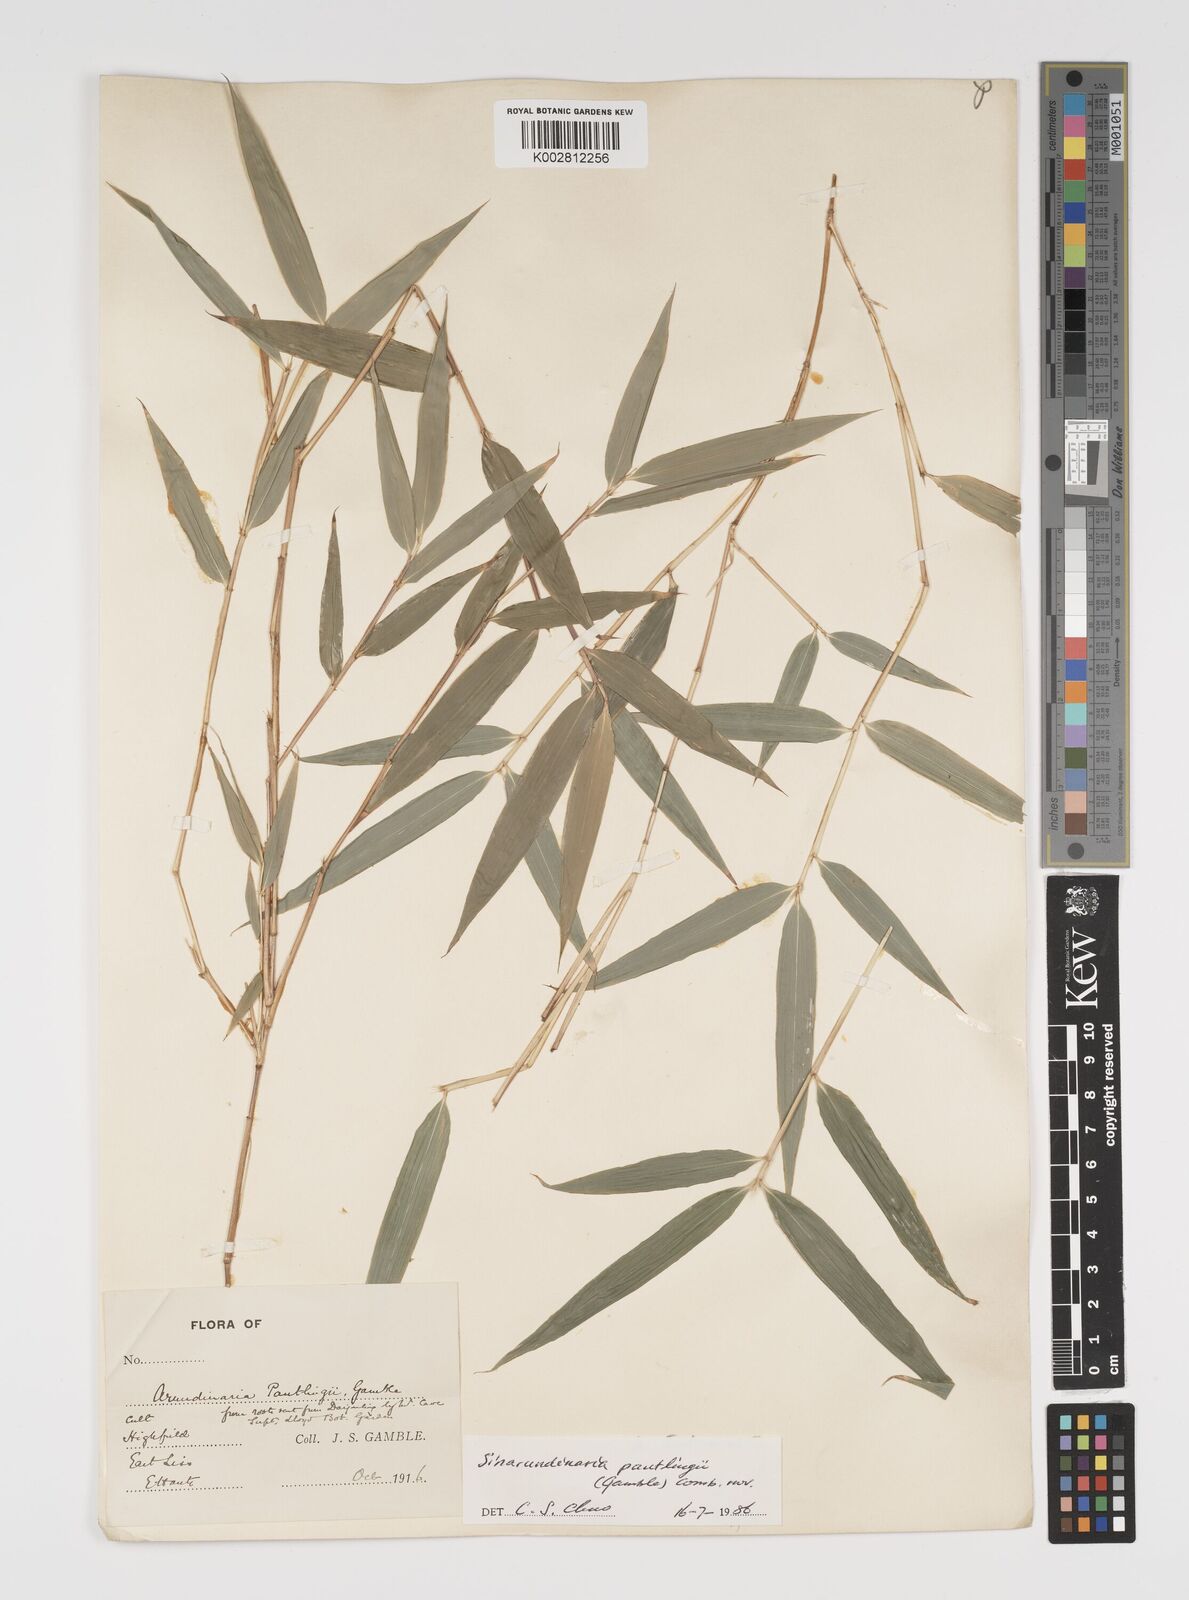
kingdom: Plantae
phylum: Tracheophyta
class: Liliopsida
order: Poales
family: Poaceae
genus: Yushania
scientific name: Yushania pantlingii
